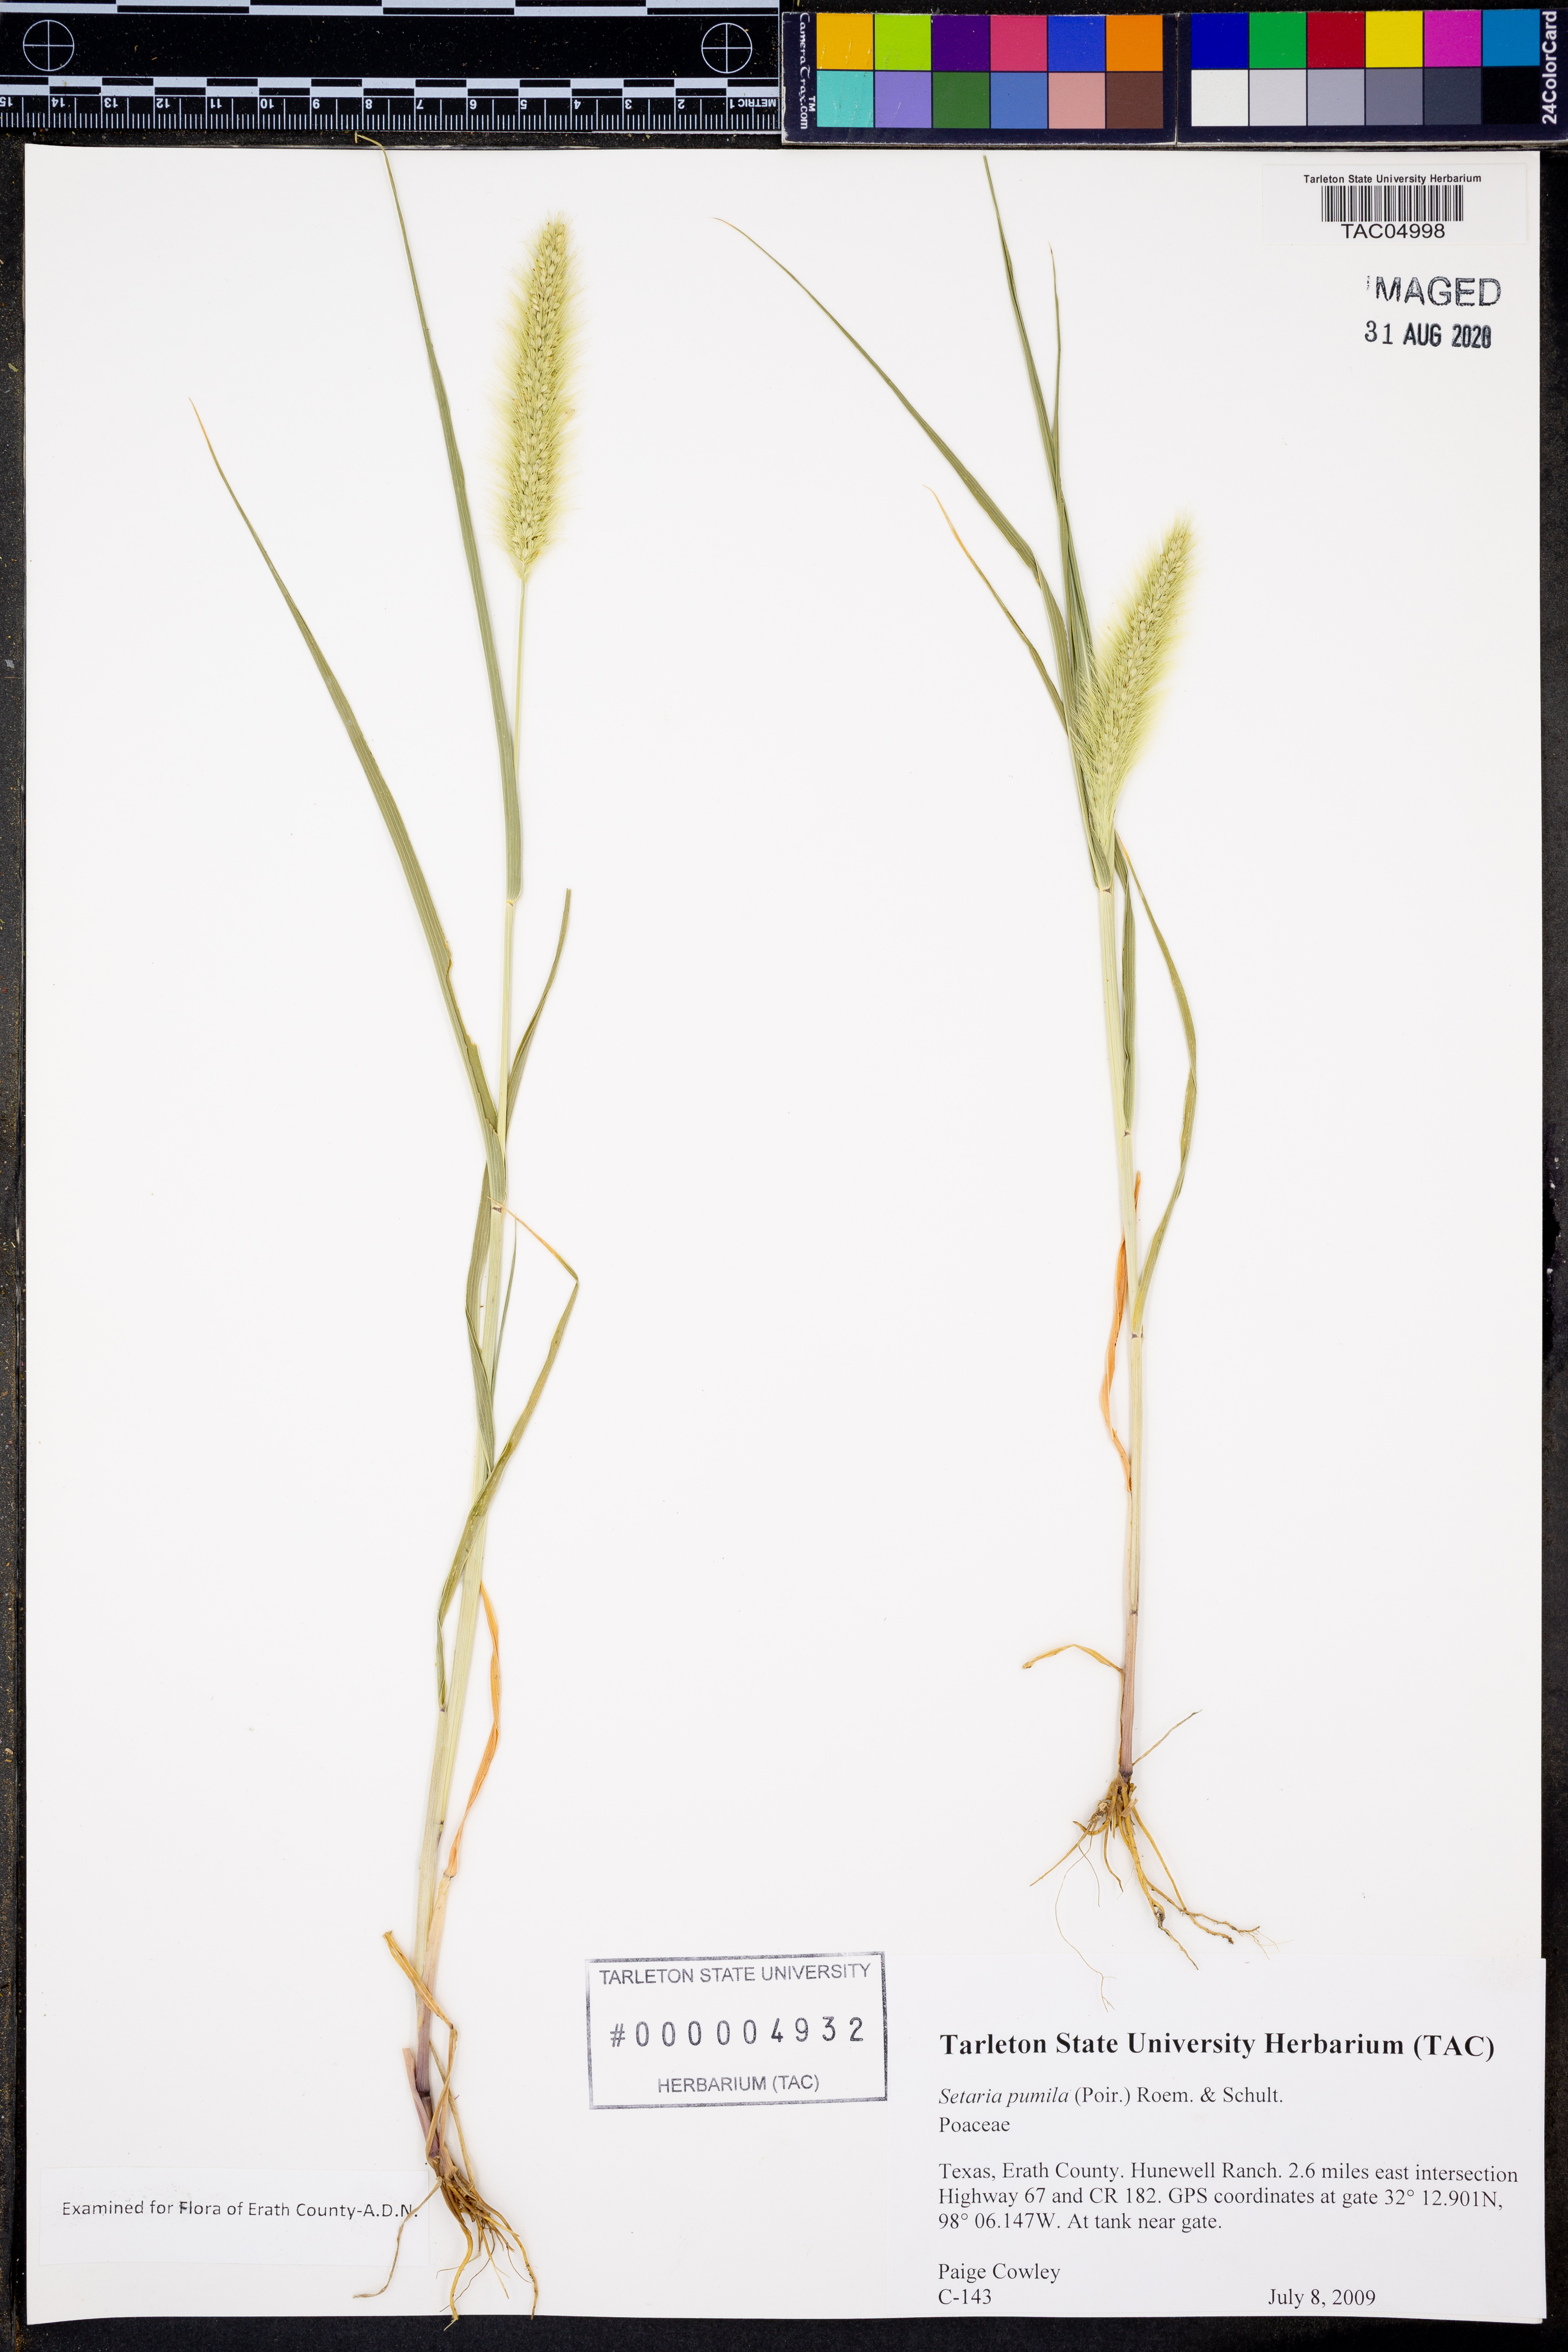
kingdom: Plantae
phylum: Tracheophyta
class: Liliopsida
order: Poales
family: Poaceae
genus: Setaria
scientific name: Setaria pumila
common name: Yellow bristle-grass
